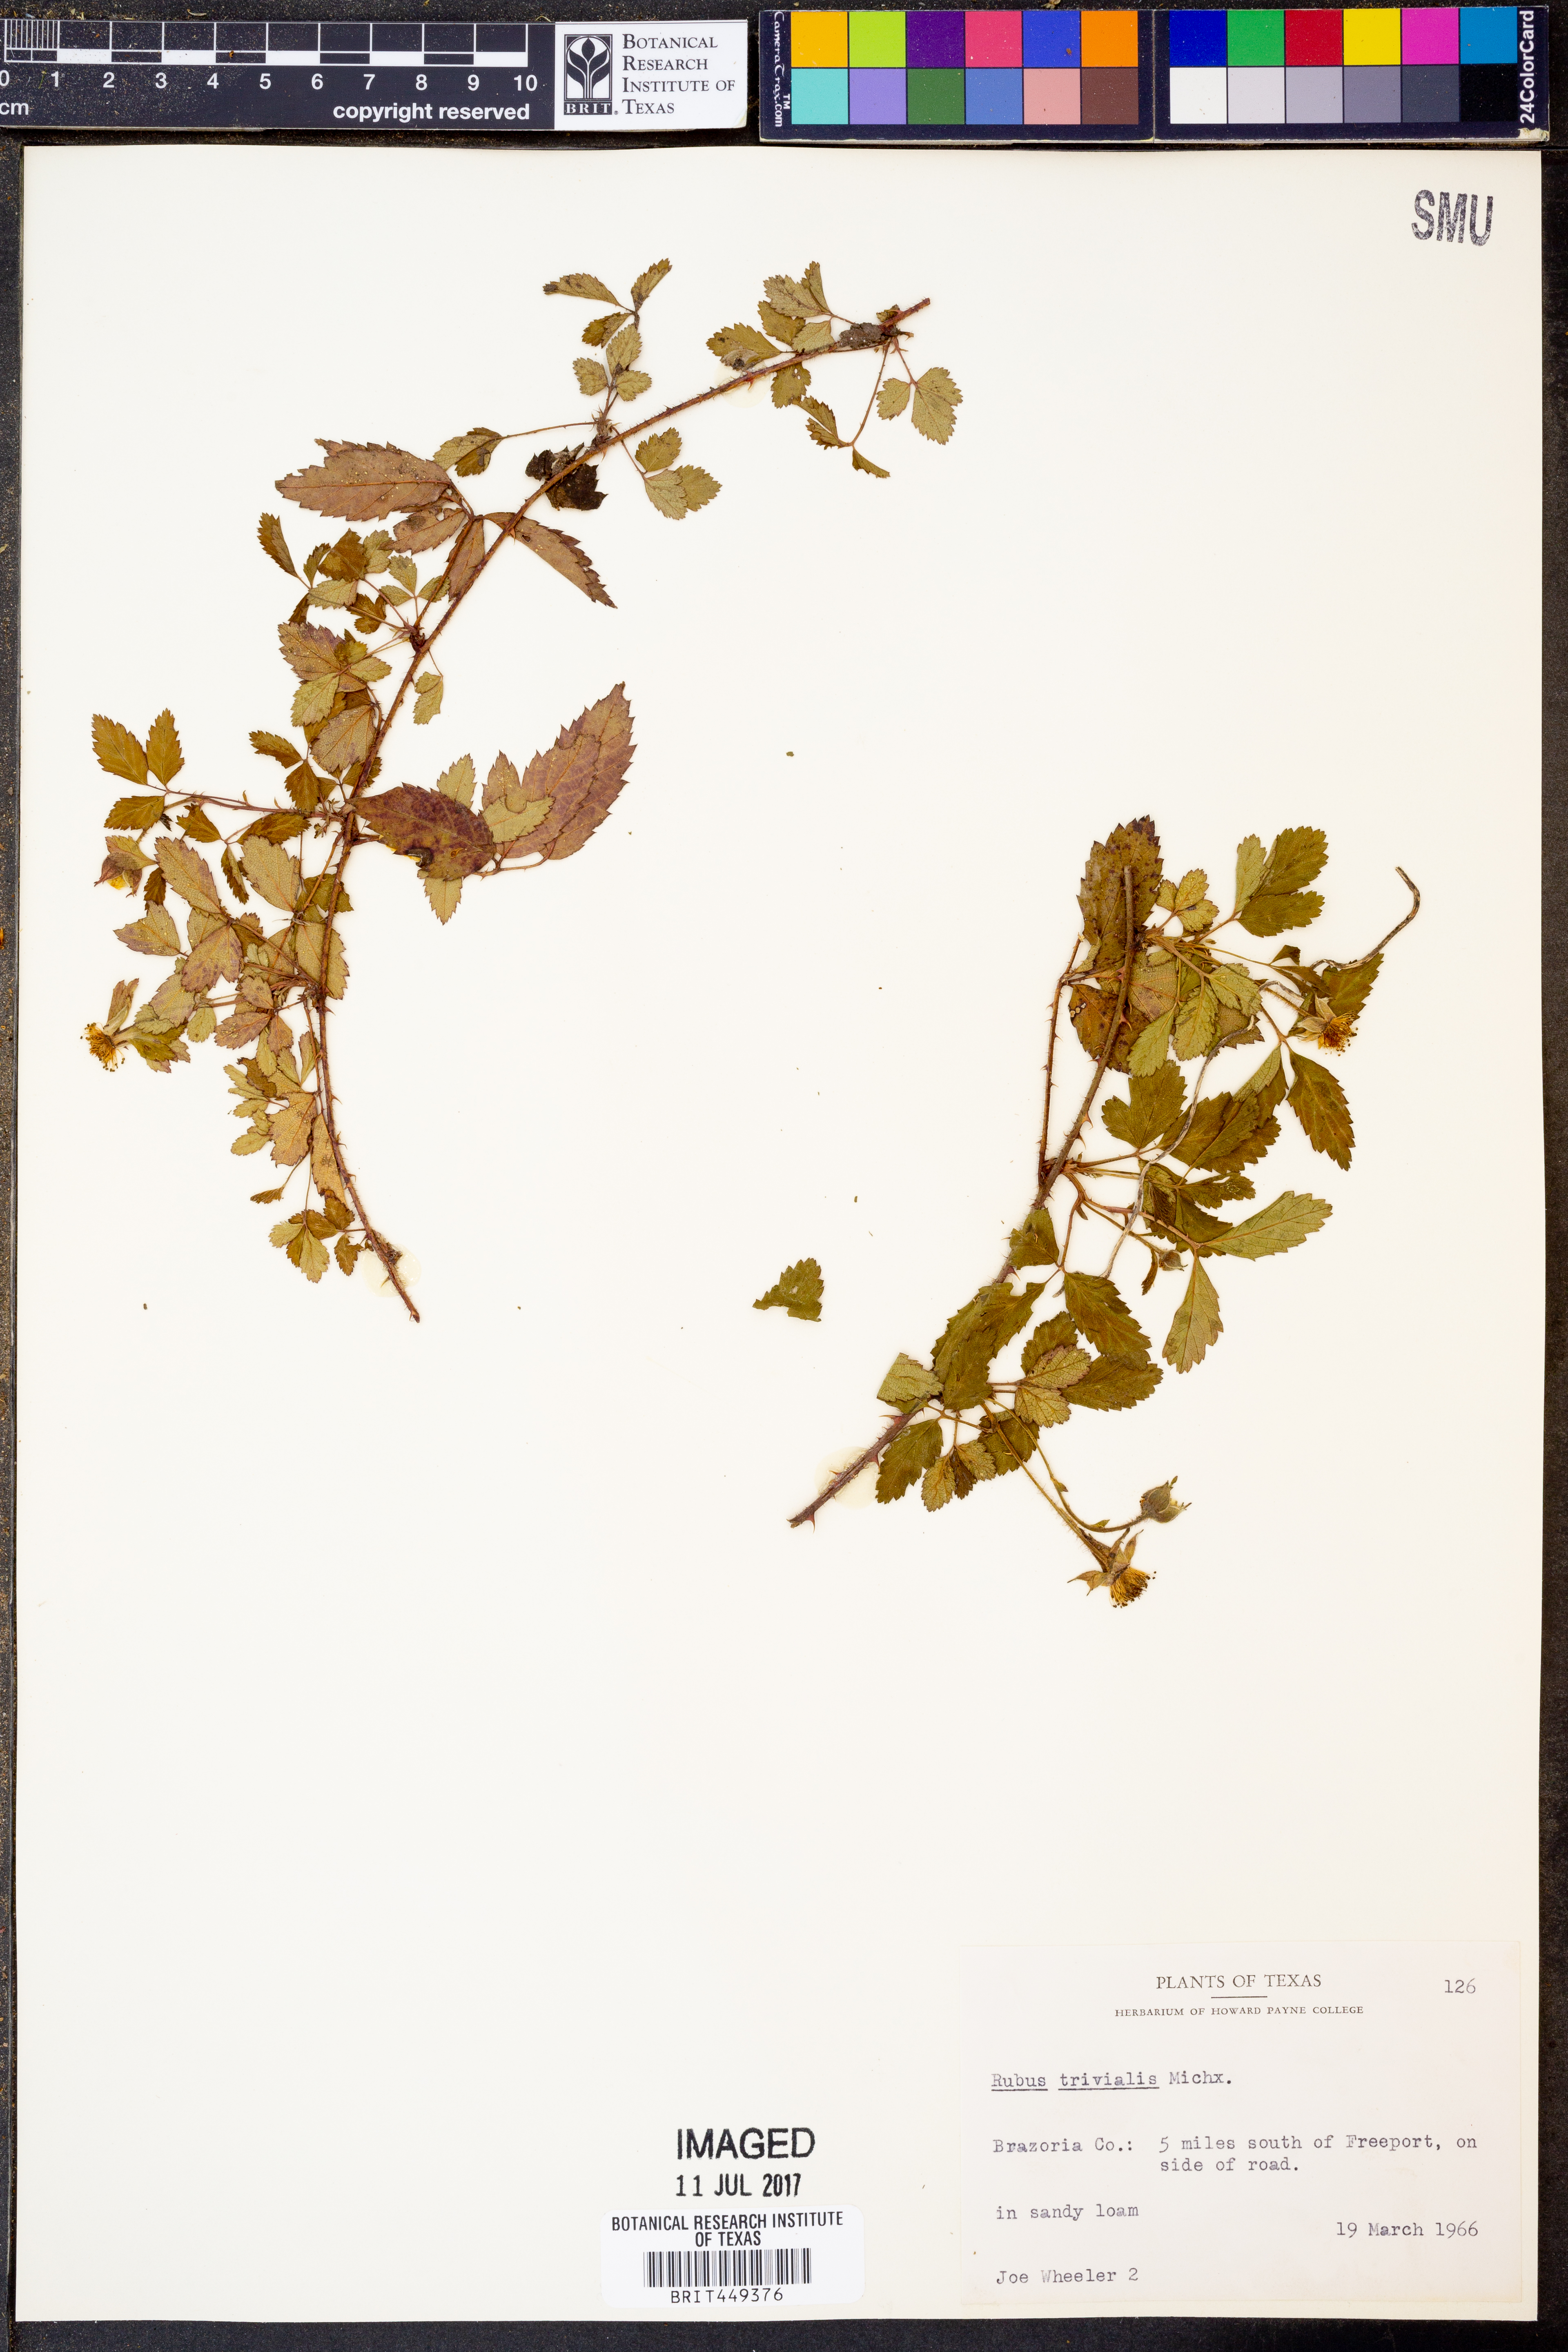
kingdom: Plantae
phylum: Tracheophyta
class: Magnoliopsida
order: Rosales
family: Rosaceae
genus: Rubus
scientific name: Rubus trivialis
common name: Southern dewberry
